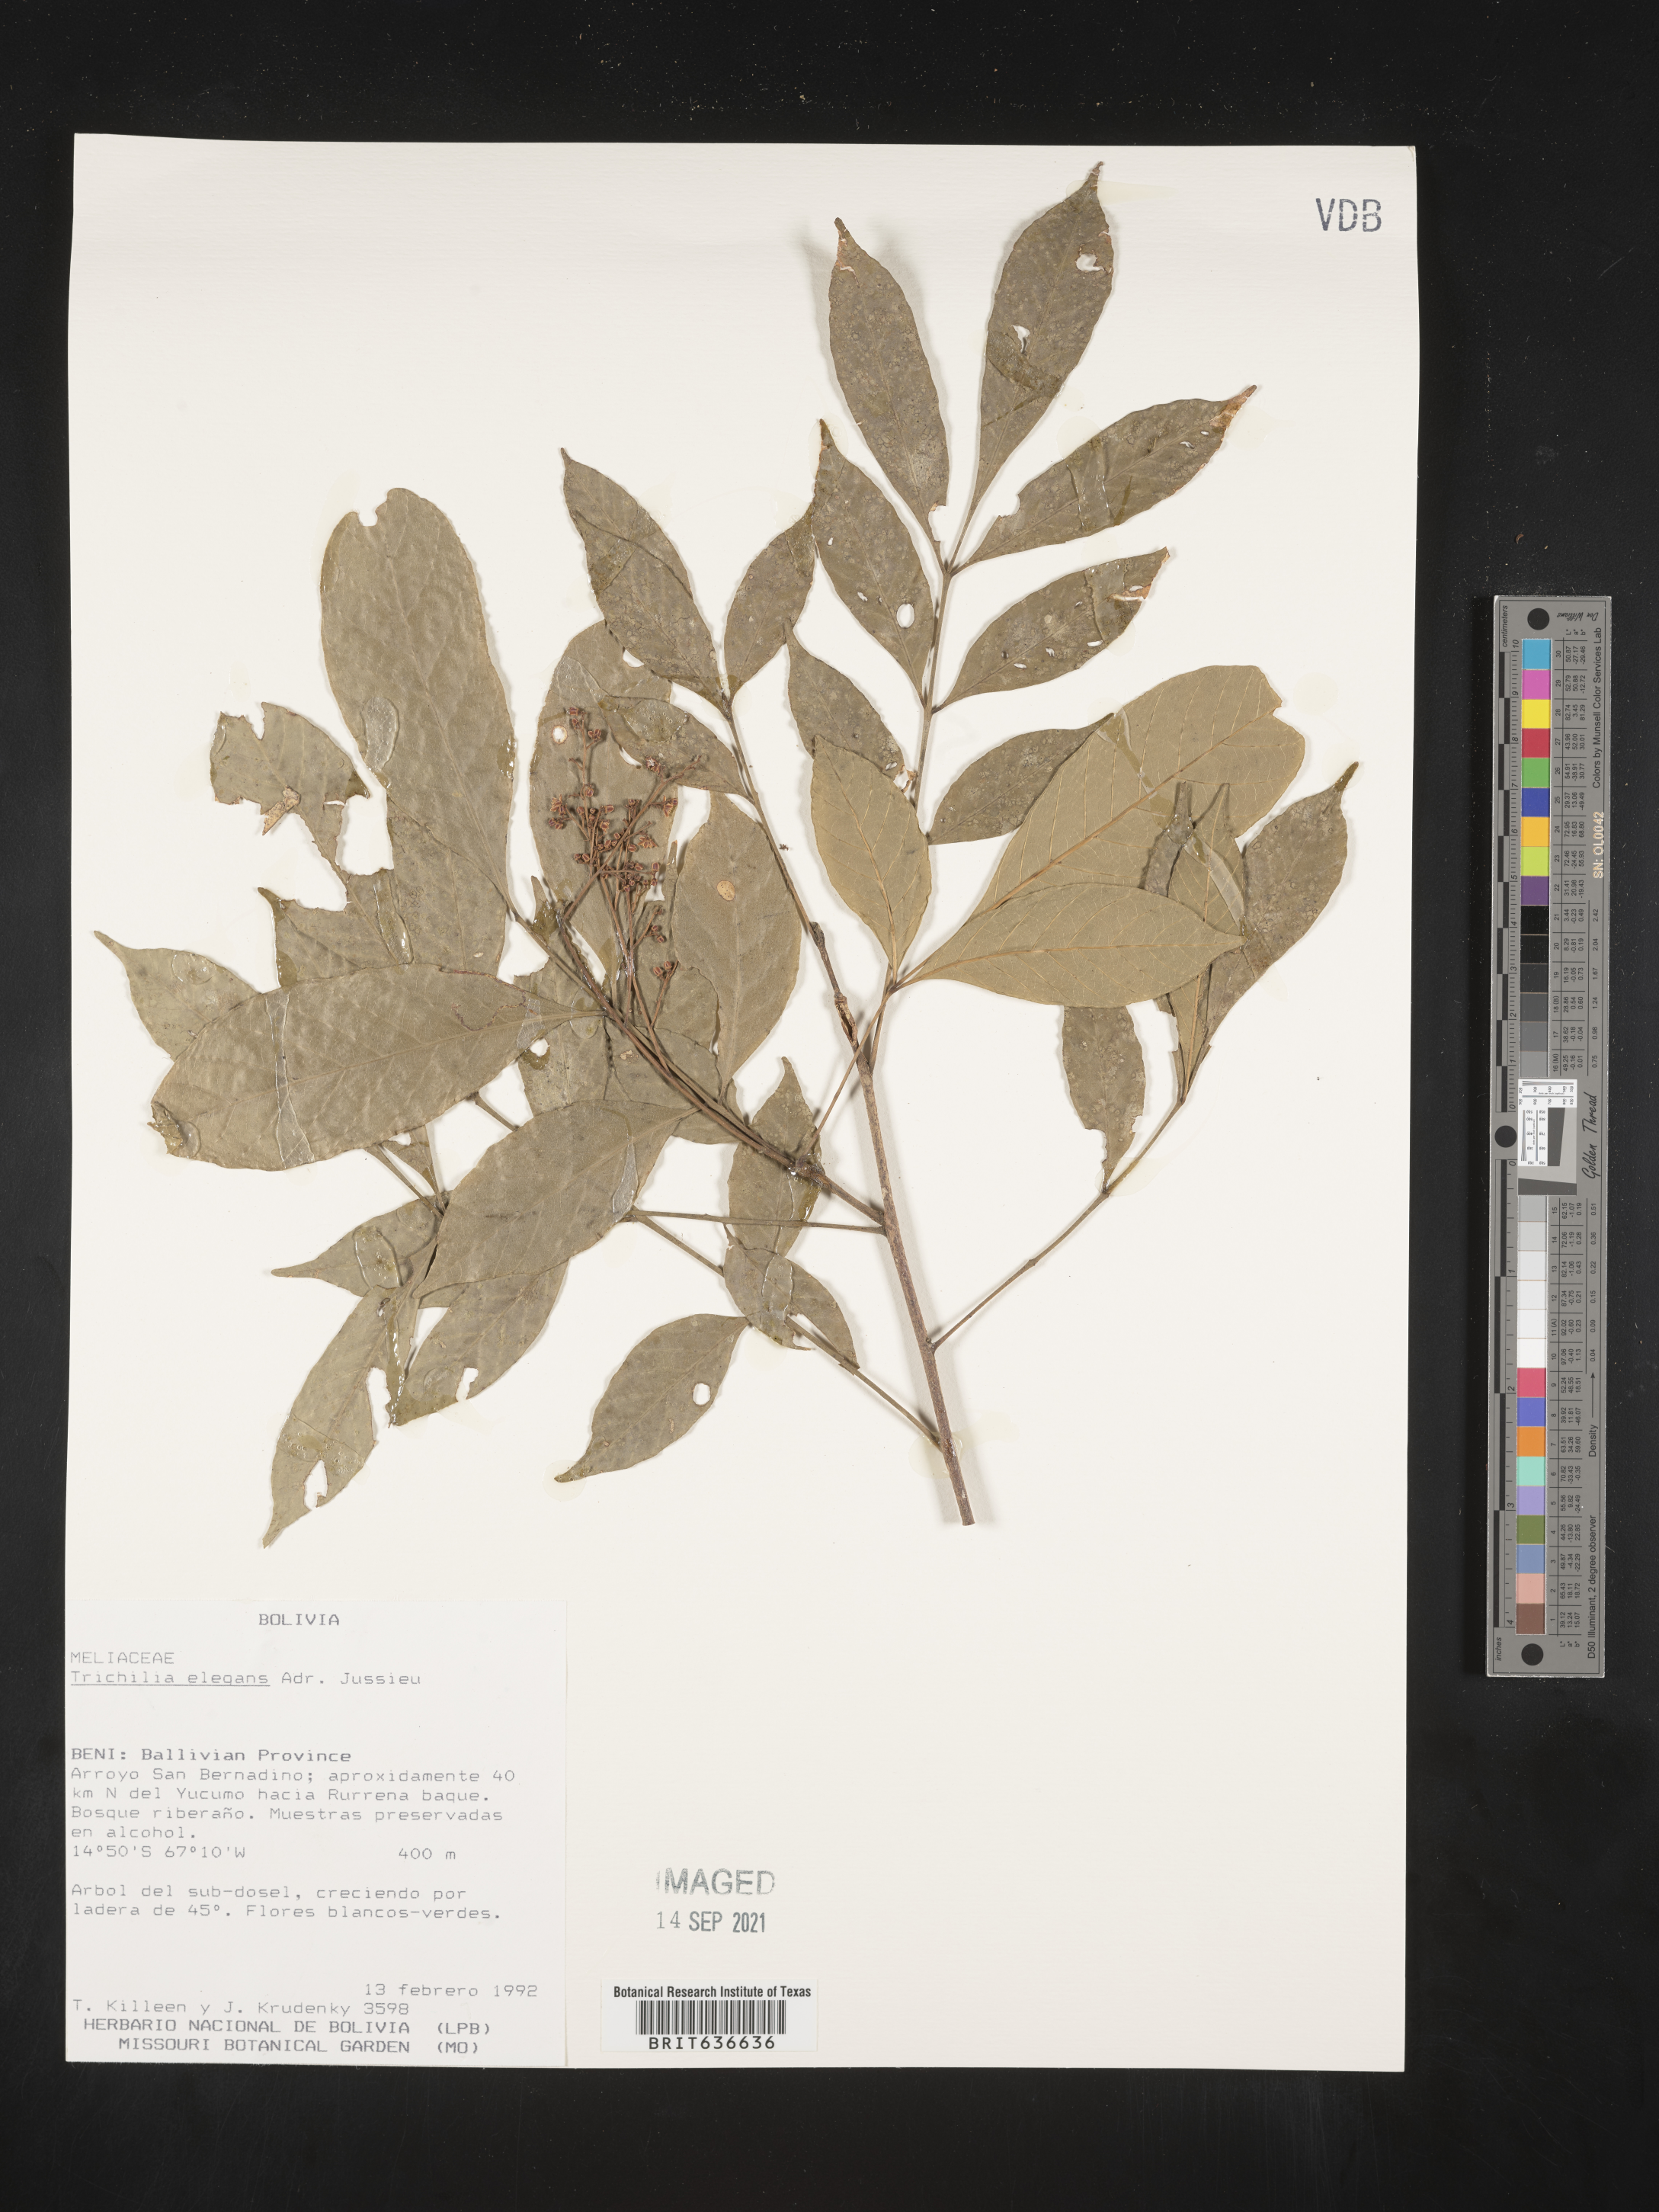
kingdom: Plantae
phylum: Tracheophyta
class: Magnoliopsida
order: Sapindales
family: Meliaceae
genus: Trichilia
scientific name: Trichilia
